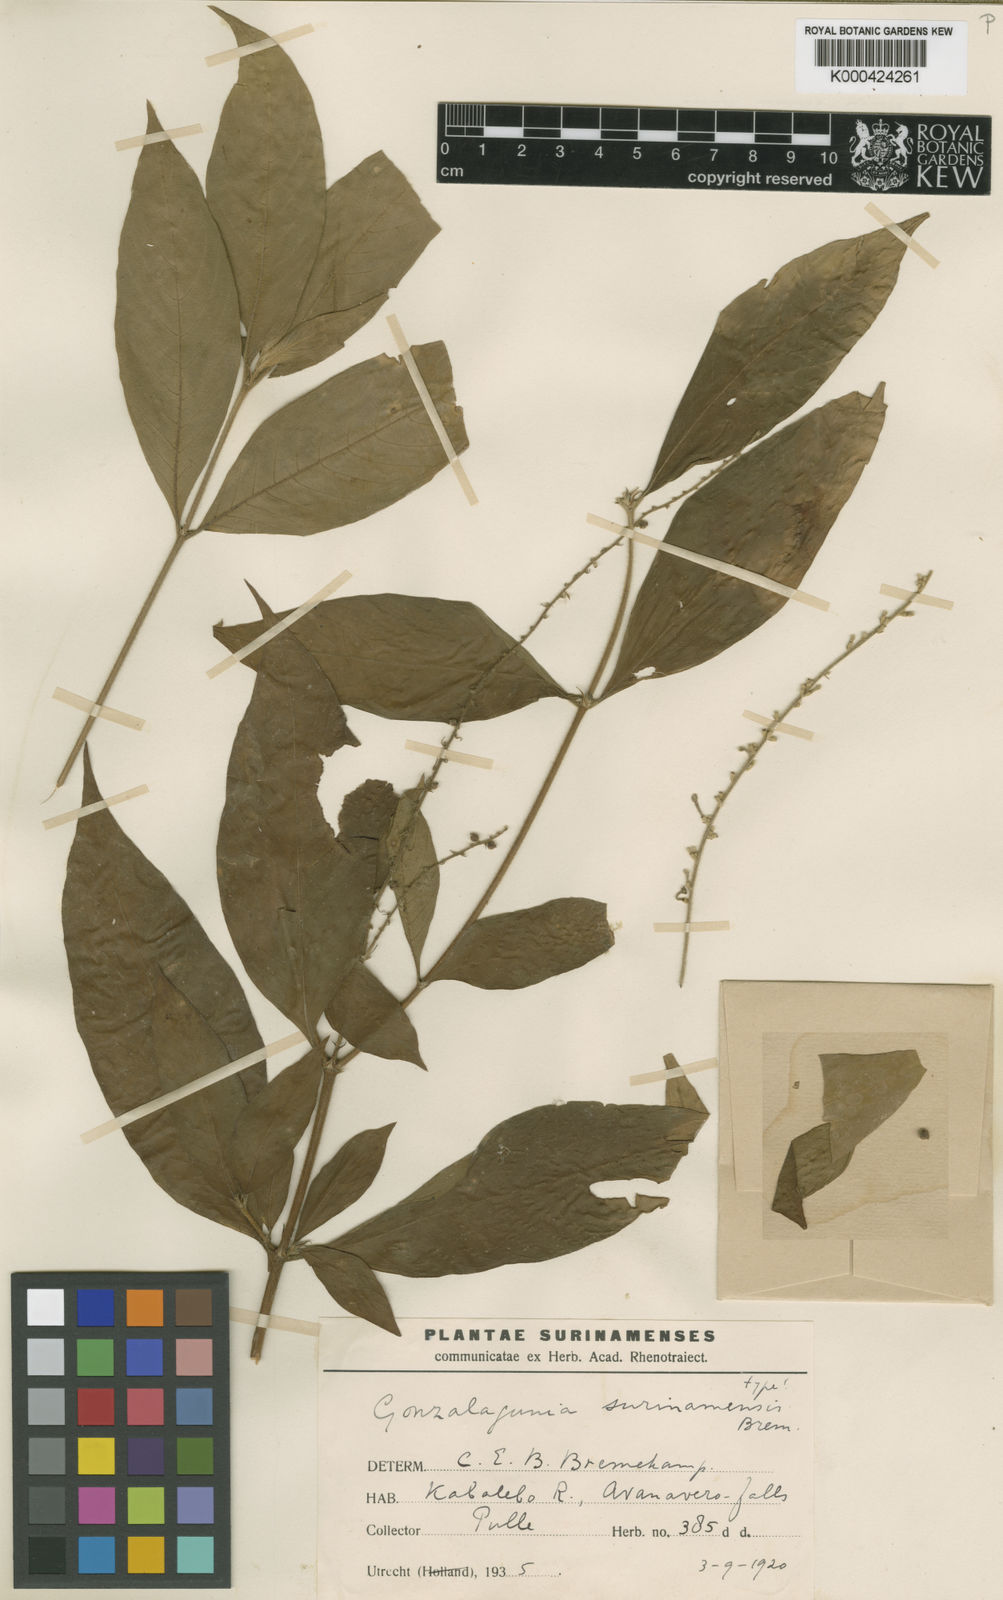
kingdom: Plantae
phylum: Tracheophyta
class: Magnoliopsida
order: Gentianales
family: Rubiaceae
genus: Gonzalagunia
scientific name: Gonzalagunia surinamensis
